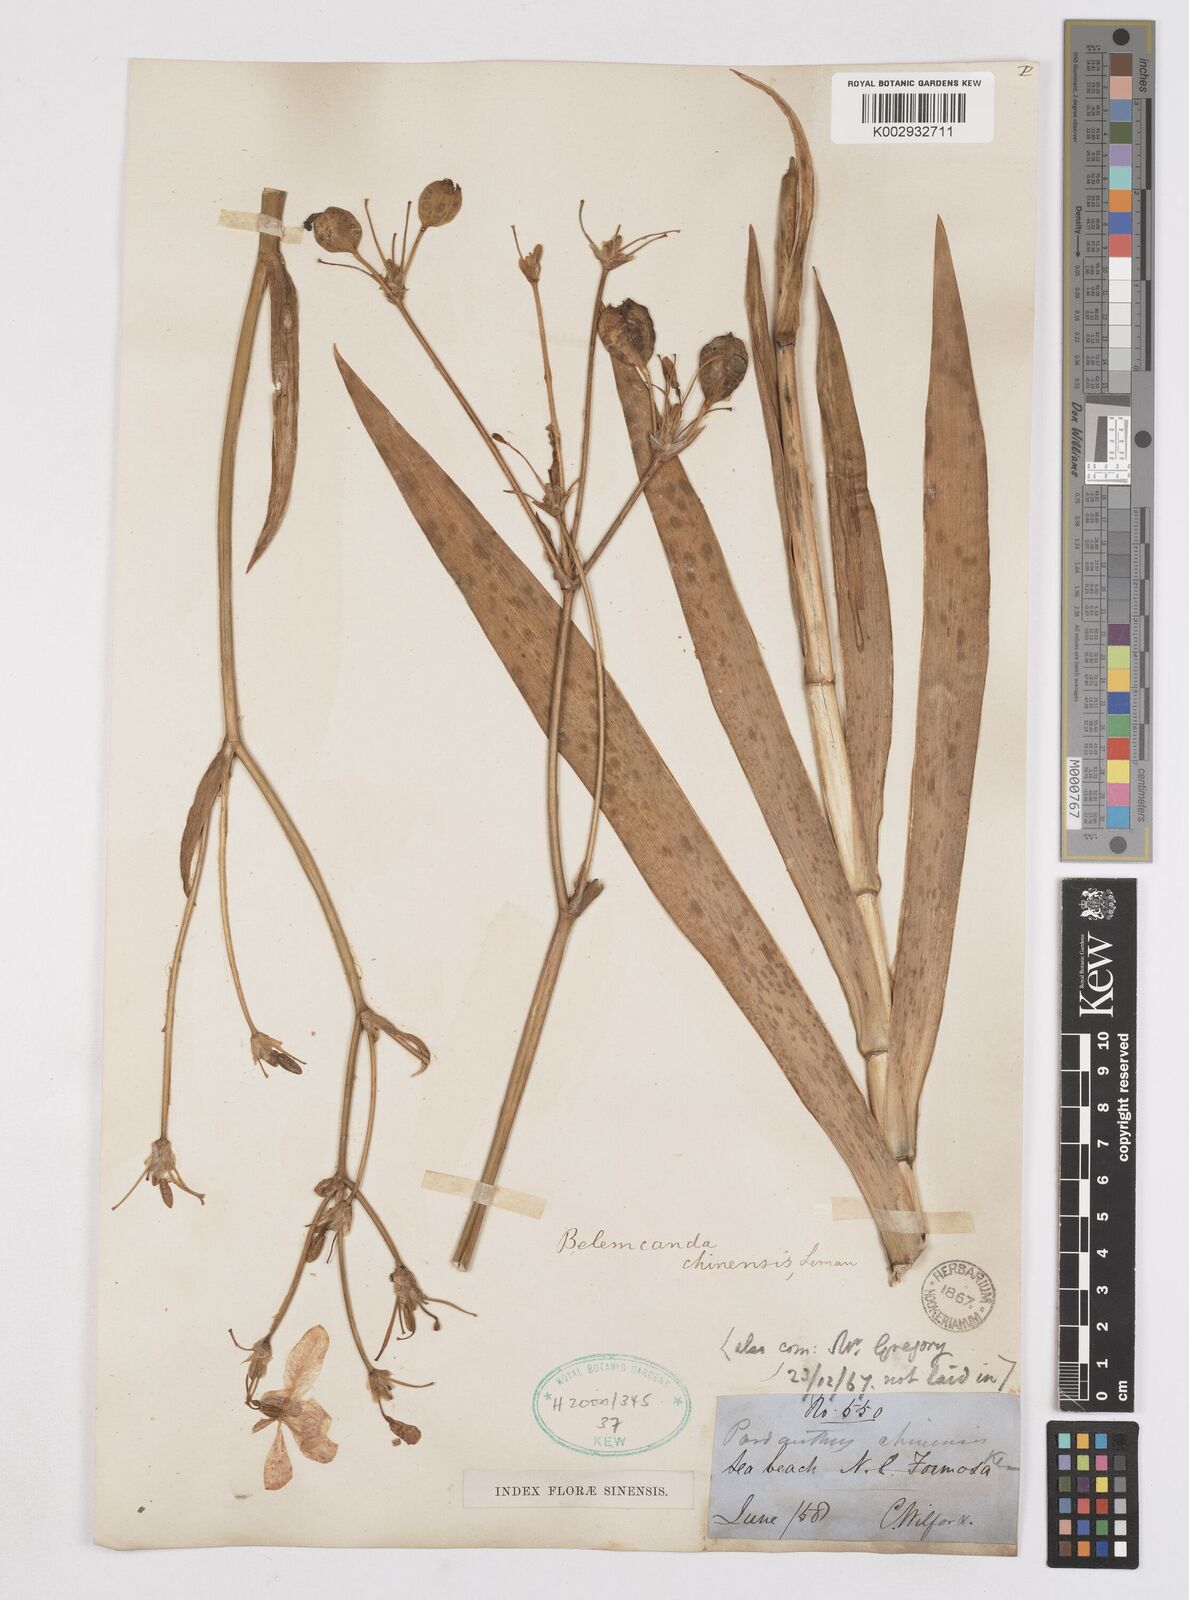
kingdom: Plantae
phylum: Tracheophyta
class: Liliopsida
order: Asparagales
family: Iridaceae
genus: Iris
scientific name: Iris
